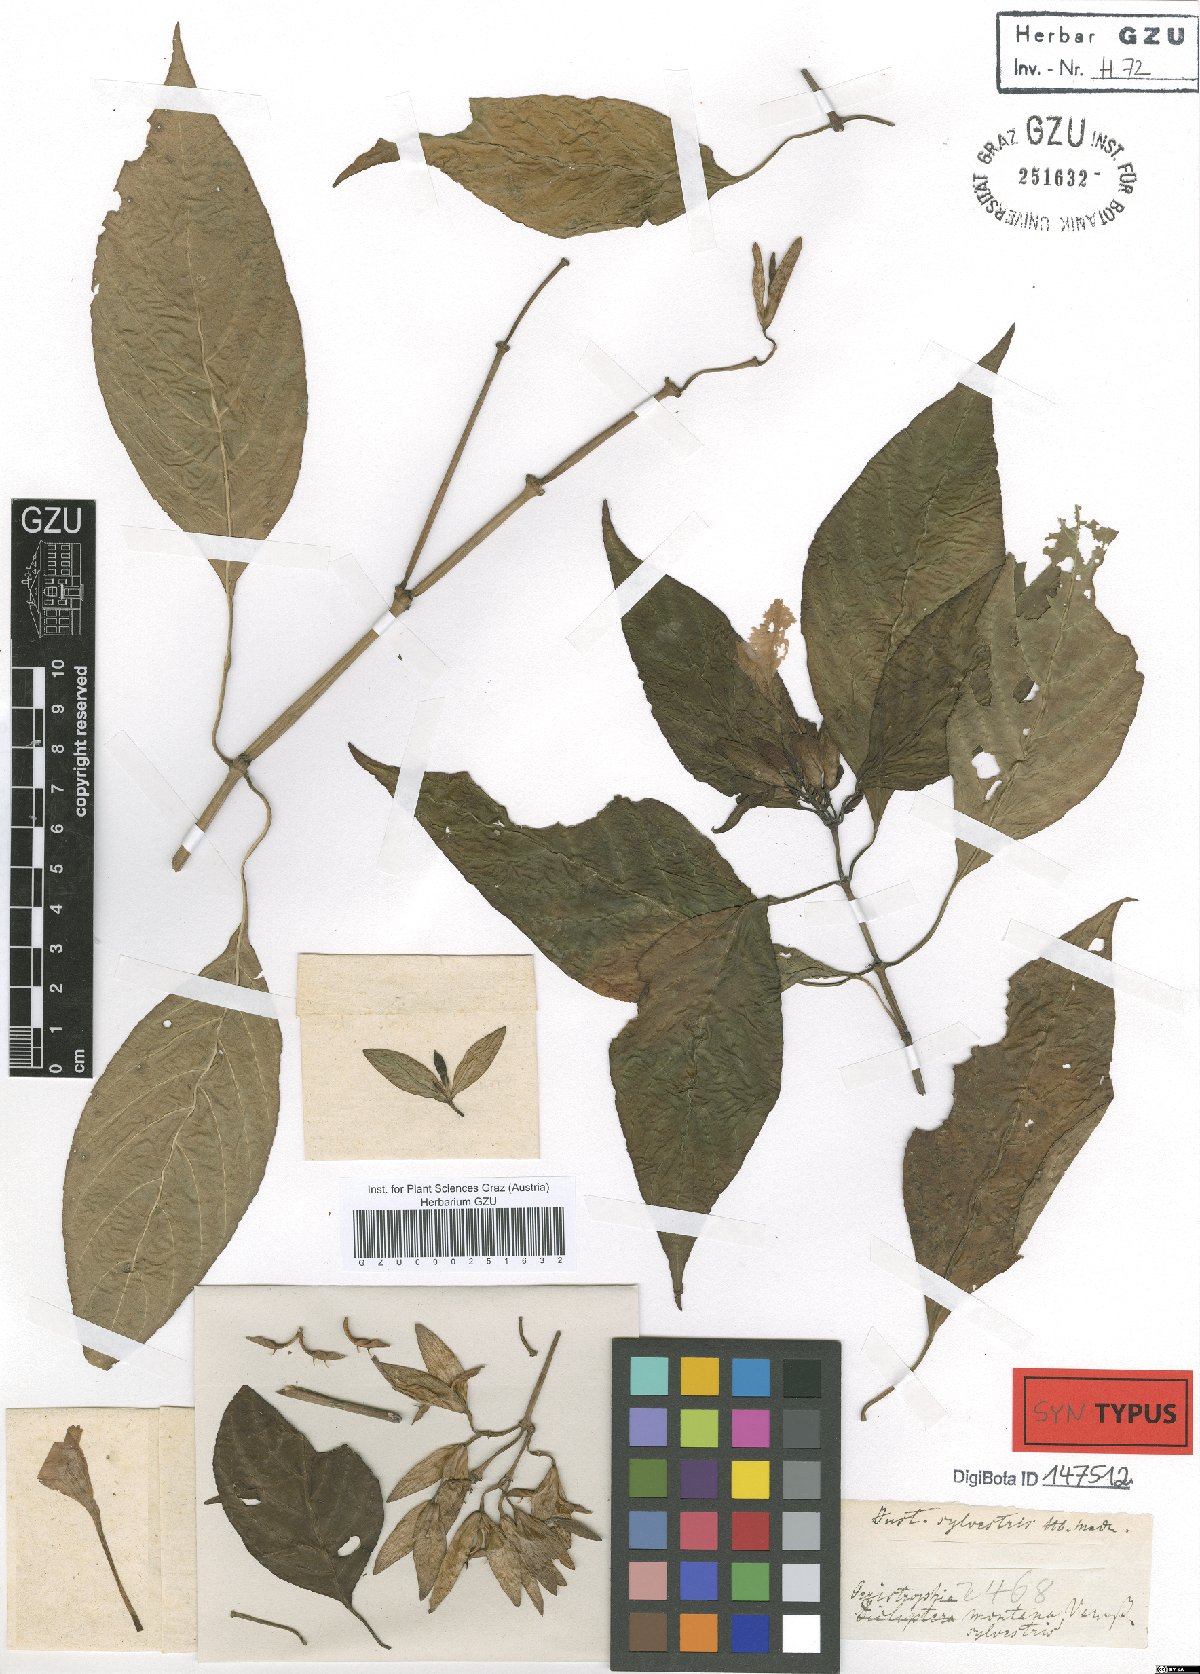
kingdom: Plantae
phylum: Tracheophyta
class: Magnoliopsida
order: Lamiales
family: Acanthaceae
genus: Dicliptera
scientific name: Dicliptera baphica
